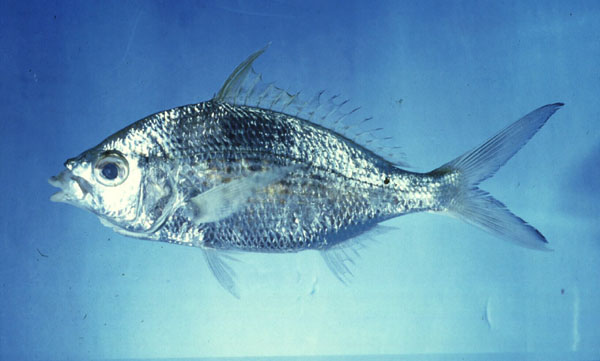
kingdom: Animalia
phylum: Chordata
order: Perciformes
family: Gerreidae
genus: Gerres
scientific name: Gerres longirostris
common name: Strongspine silver-biddy
